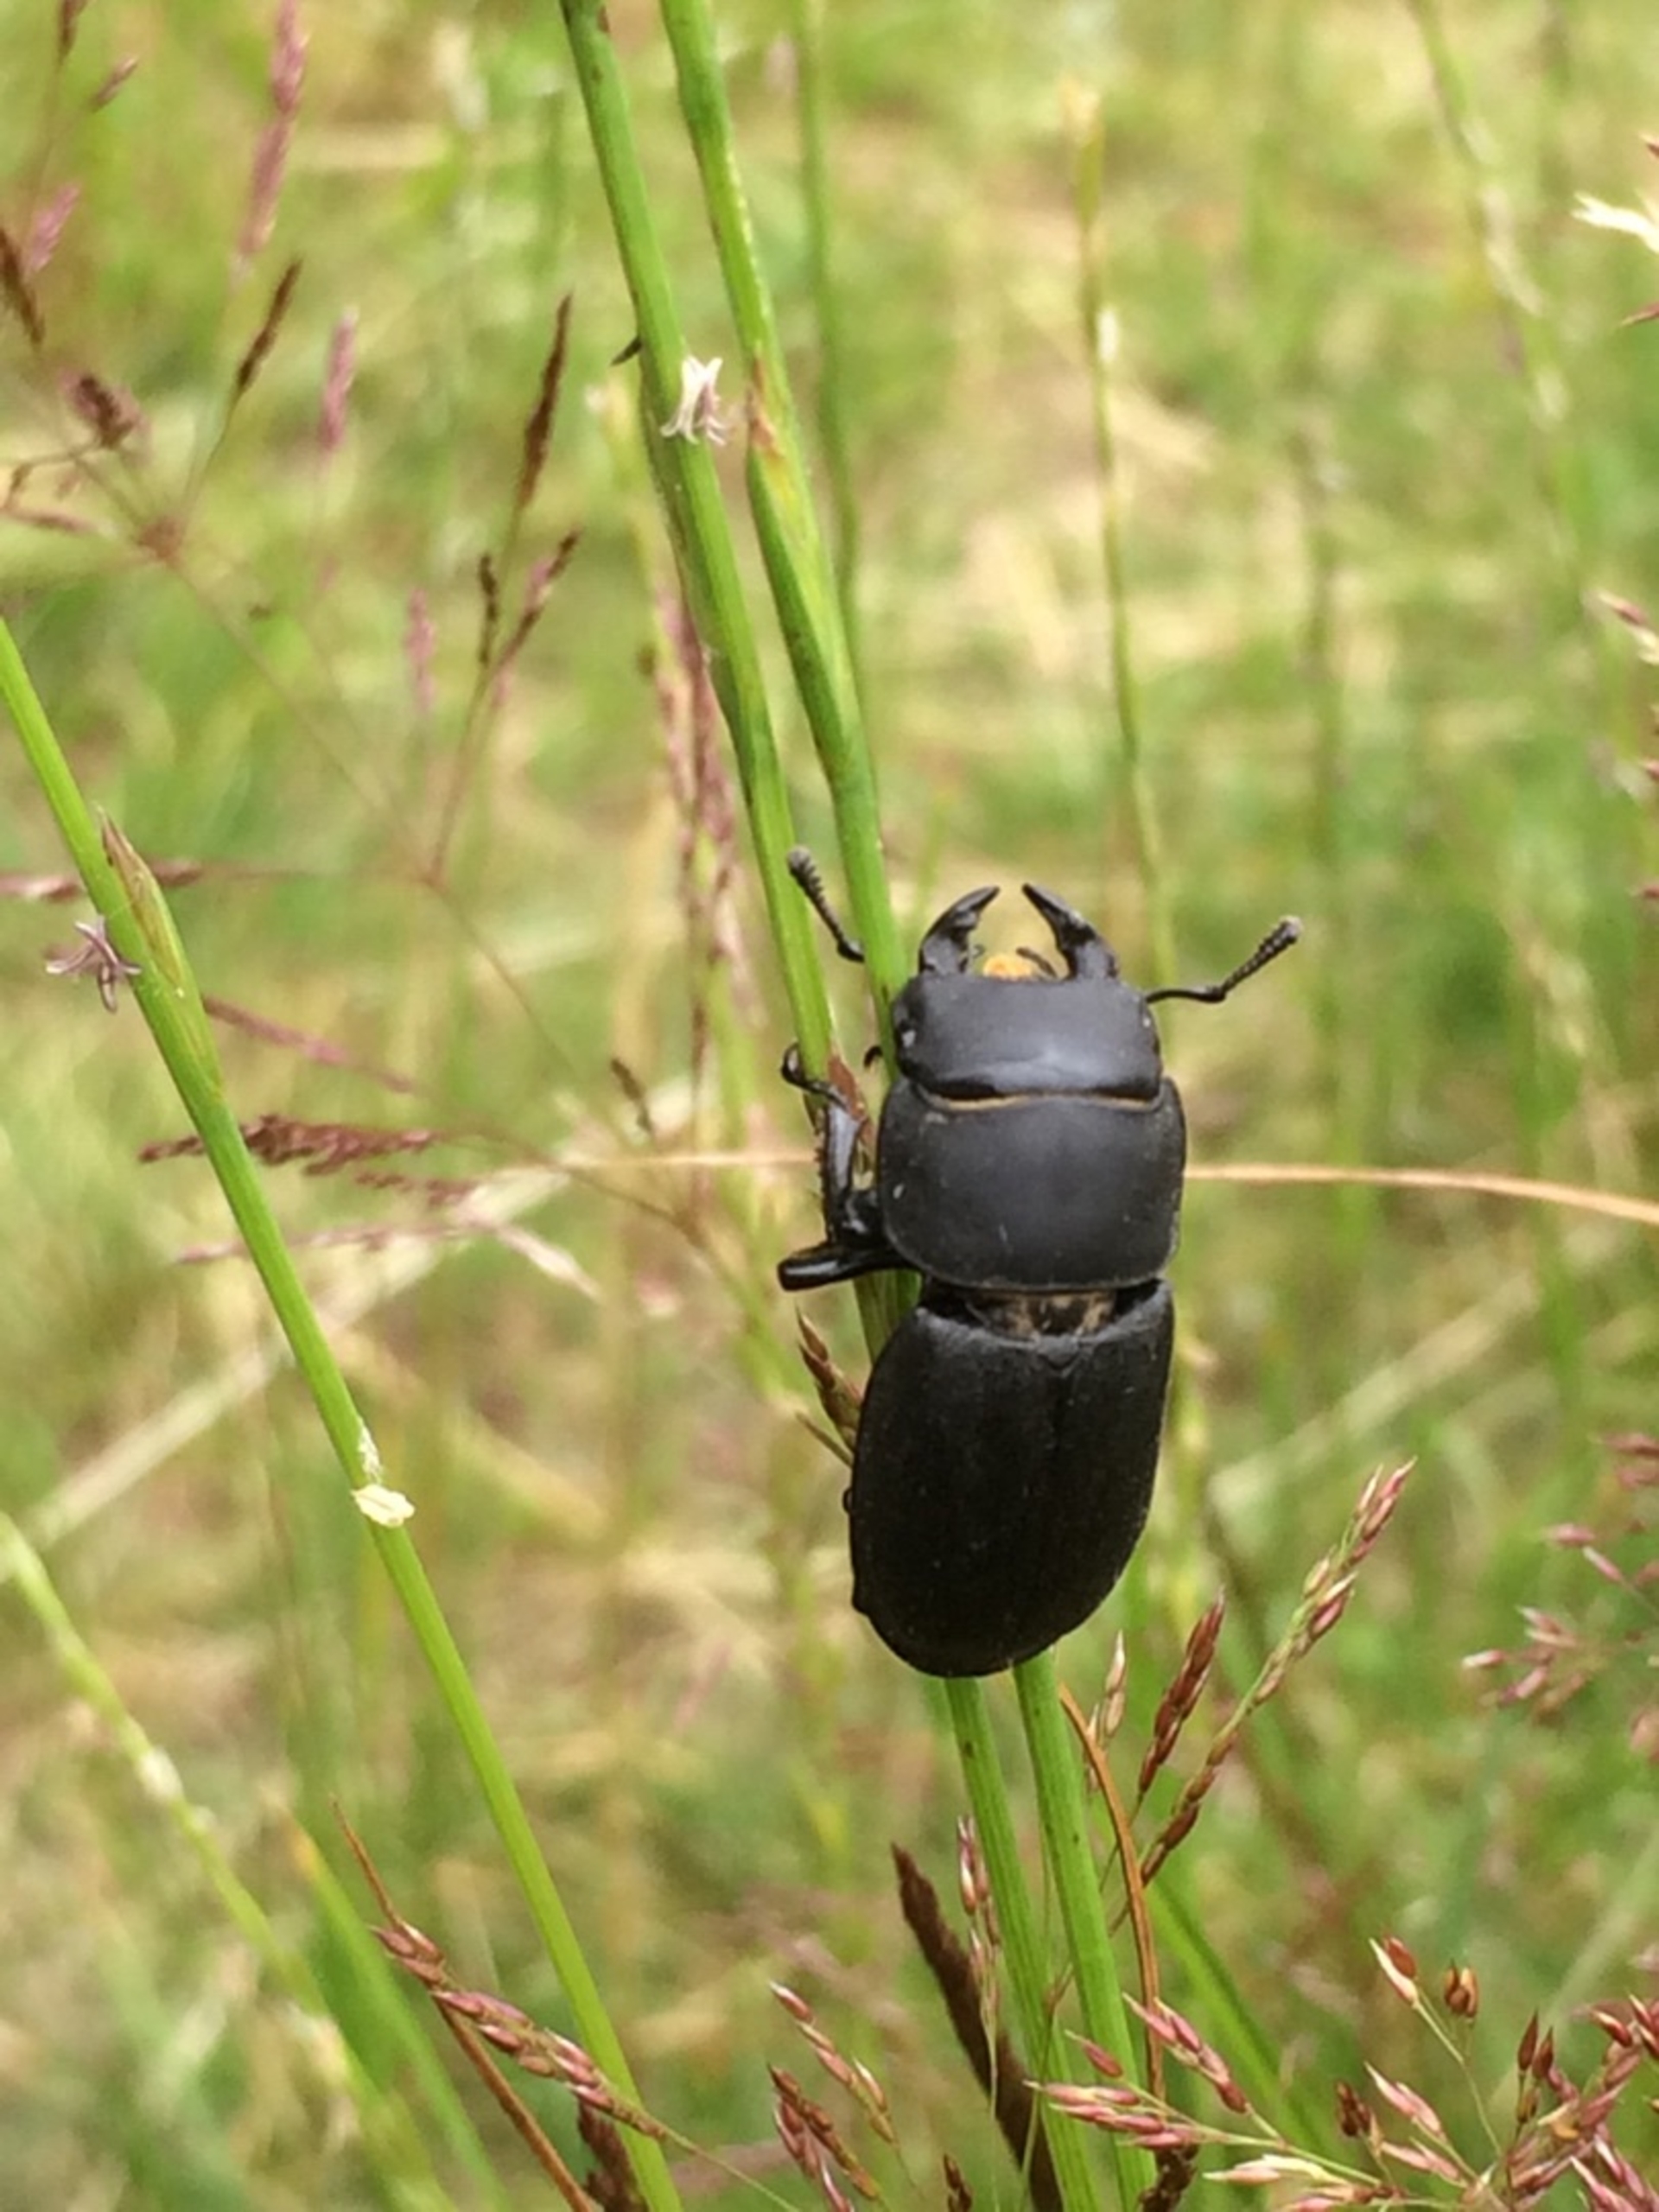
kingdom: Animalia
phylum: Arthropoda
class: Insecta
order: Coleoptera
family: Lucanidae
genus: Dorcus
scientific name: Dorcus parallelipipedus
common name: Bøghjort
